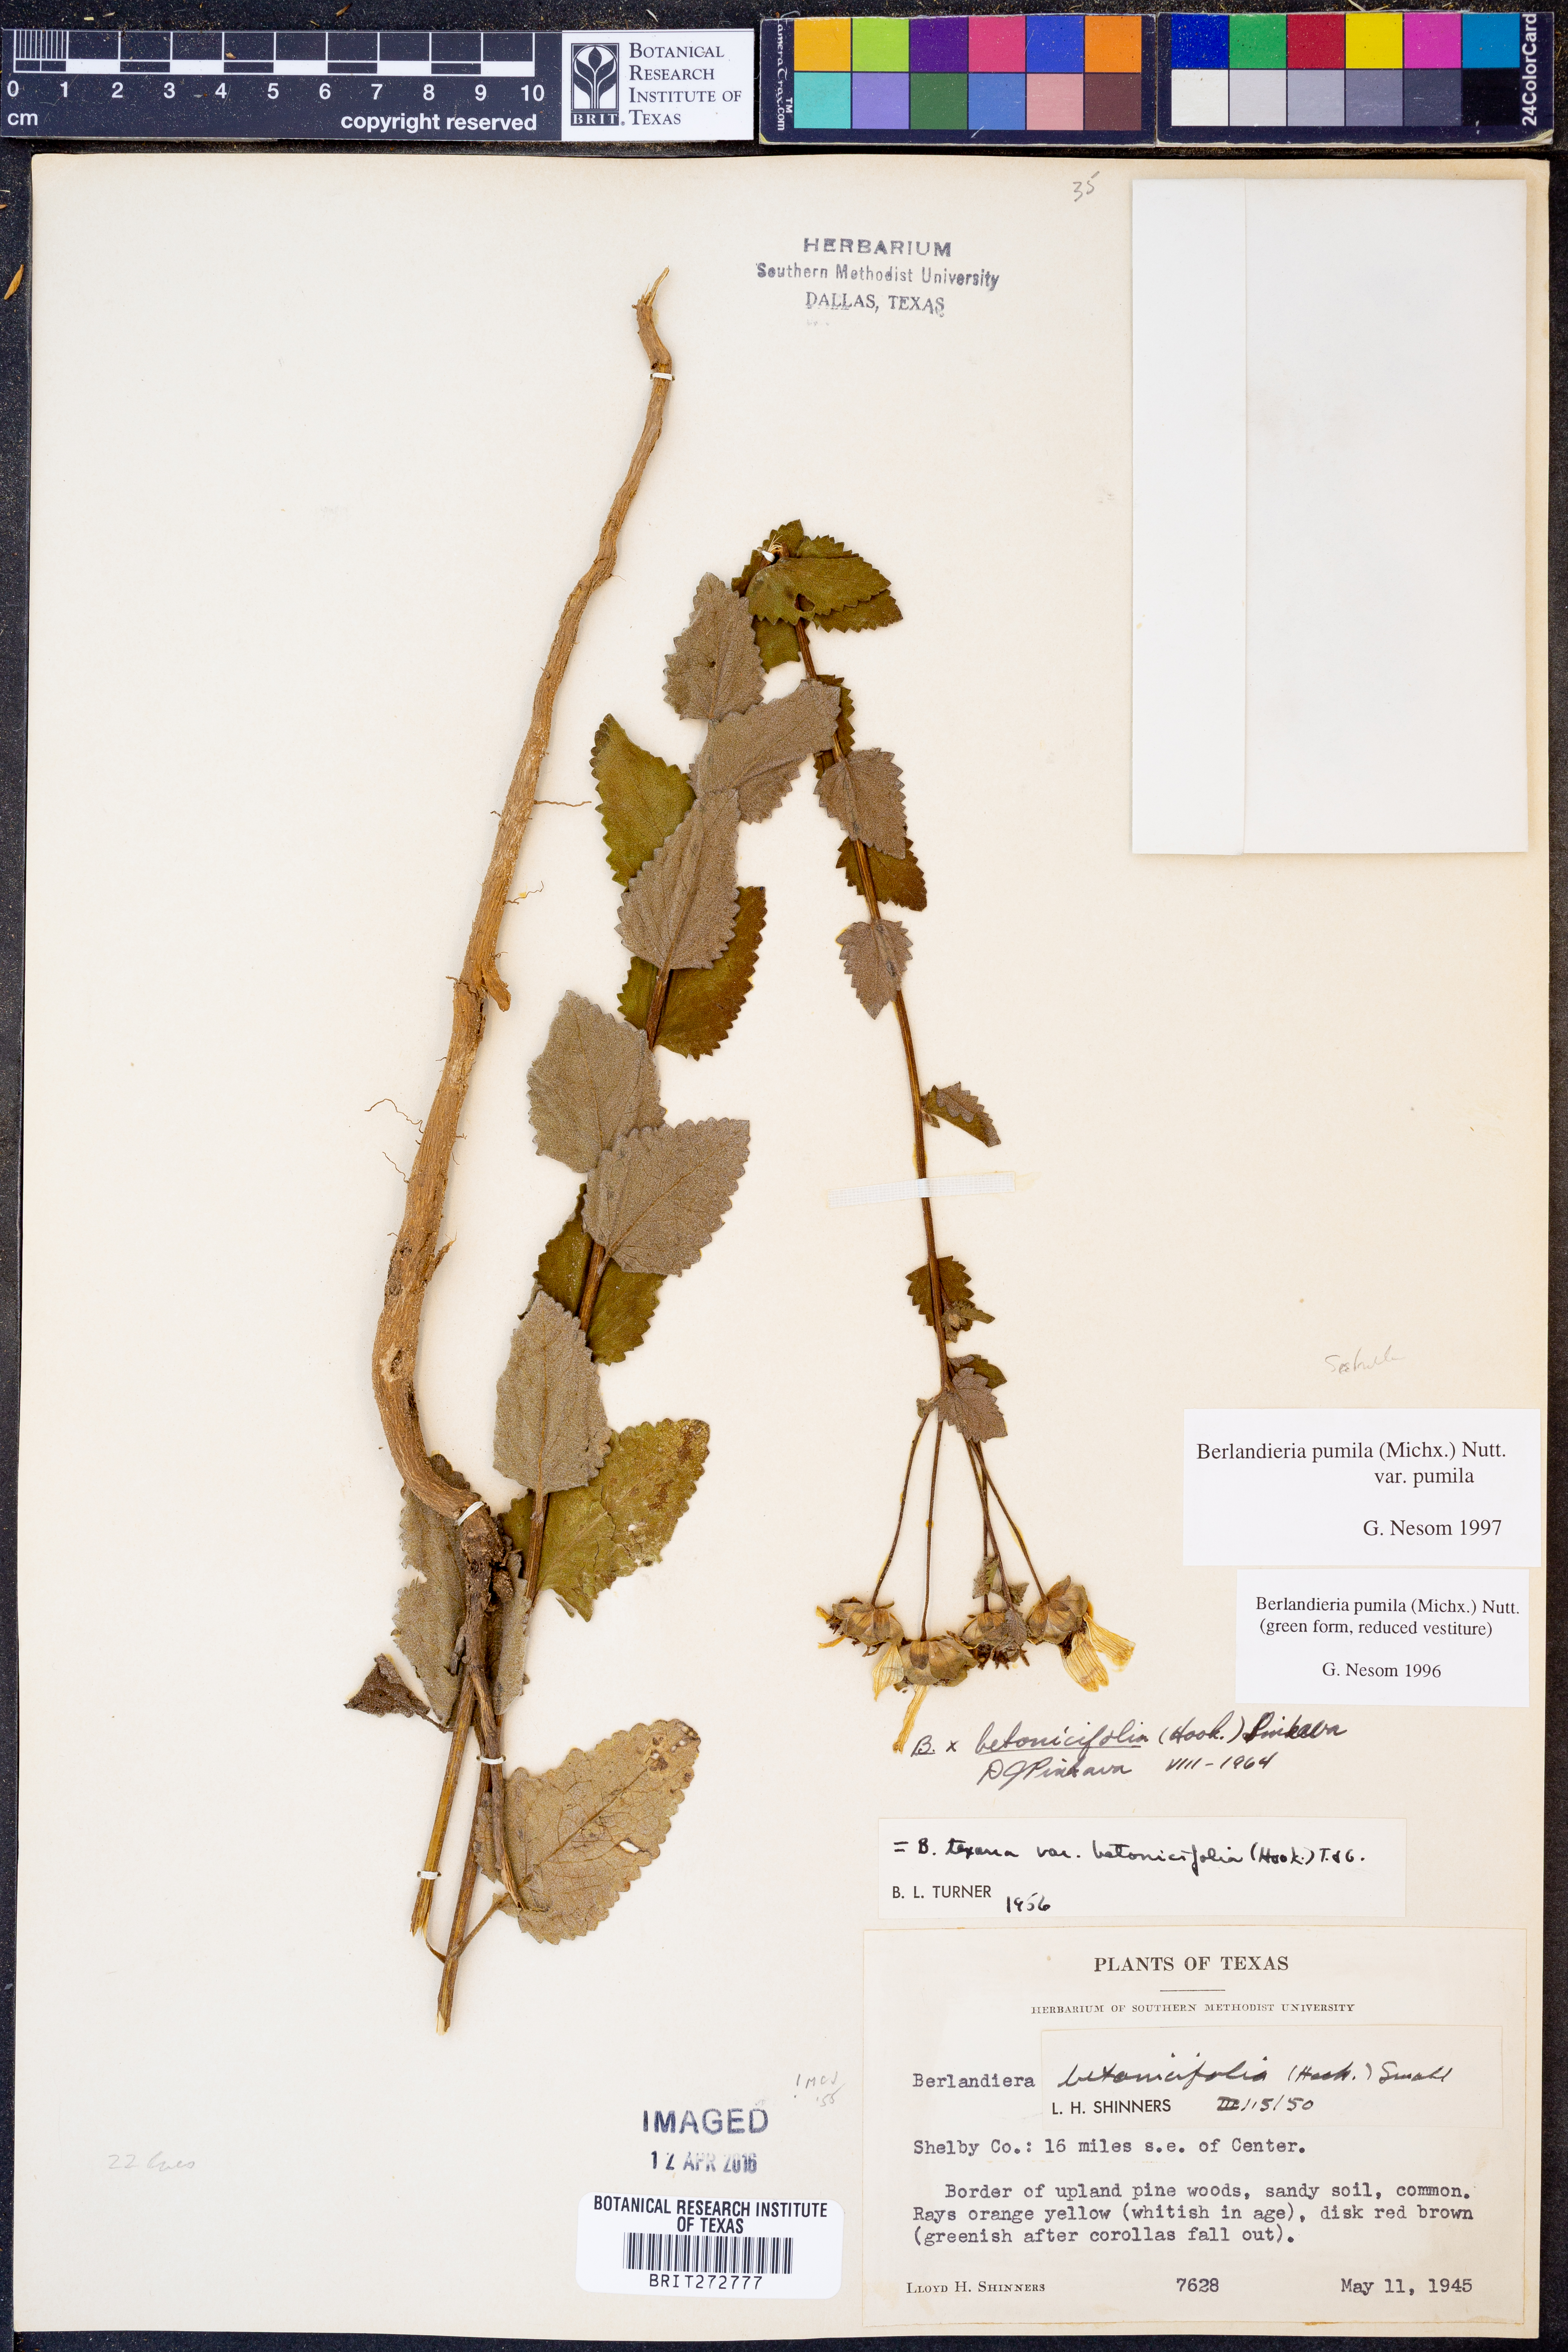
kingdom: Plantae
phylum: Tracheophyta
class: Magnoliopsida
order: Asterales
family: Asteraceae
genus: Berlandiera
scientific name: Berlandiera pumila
